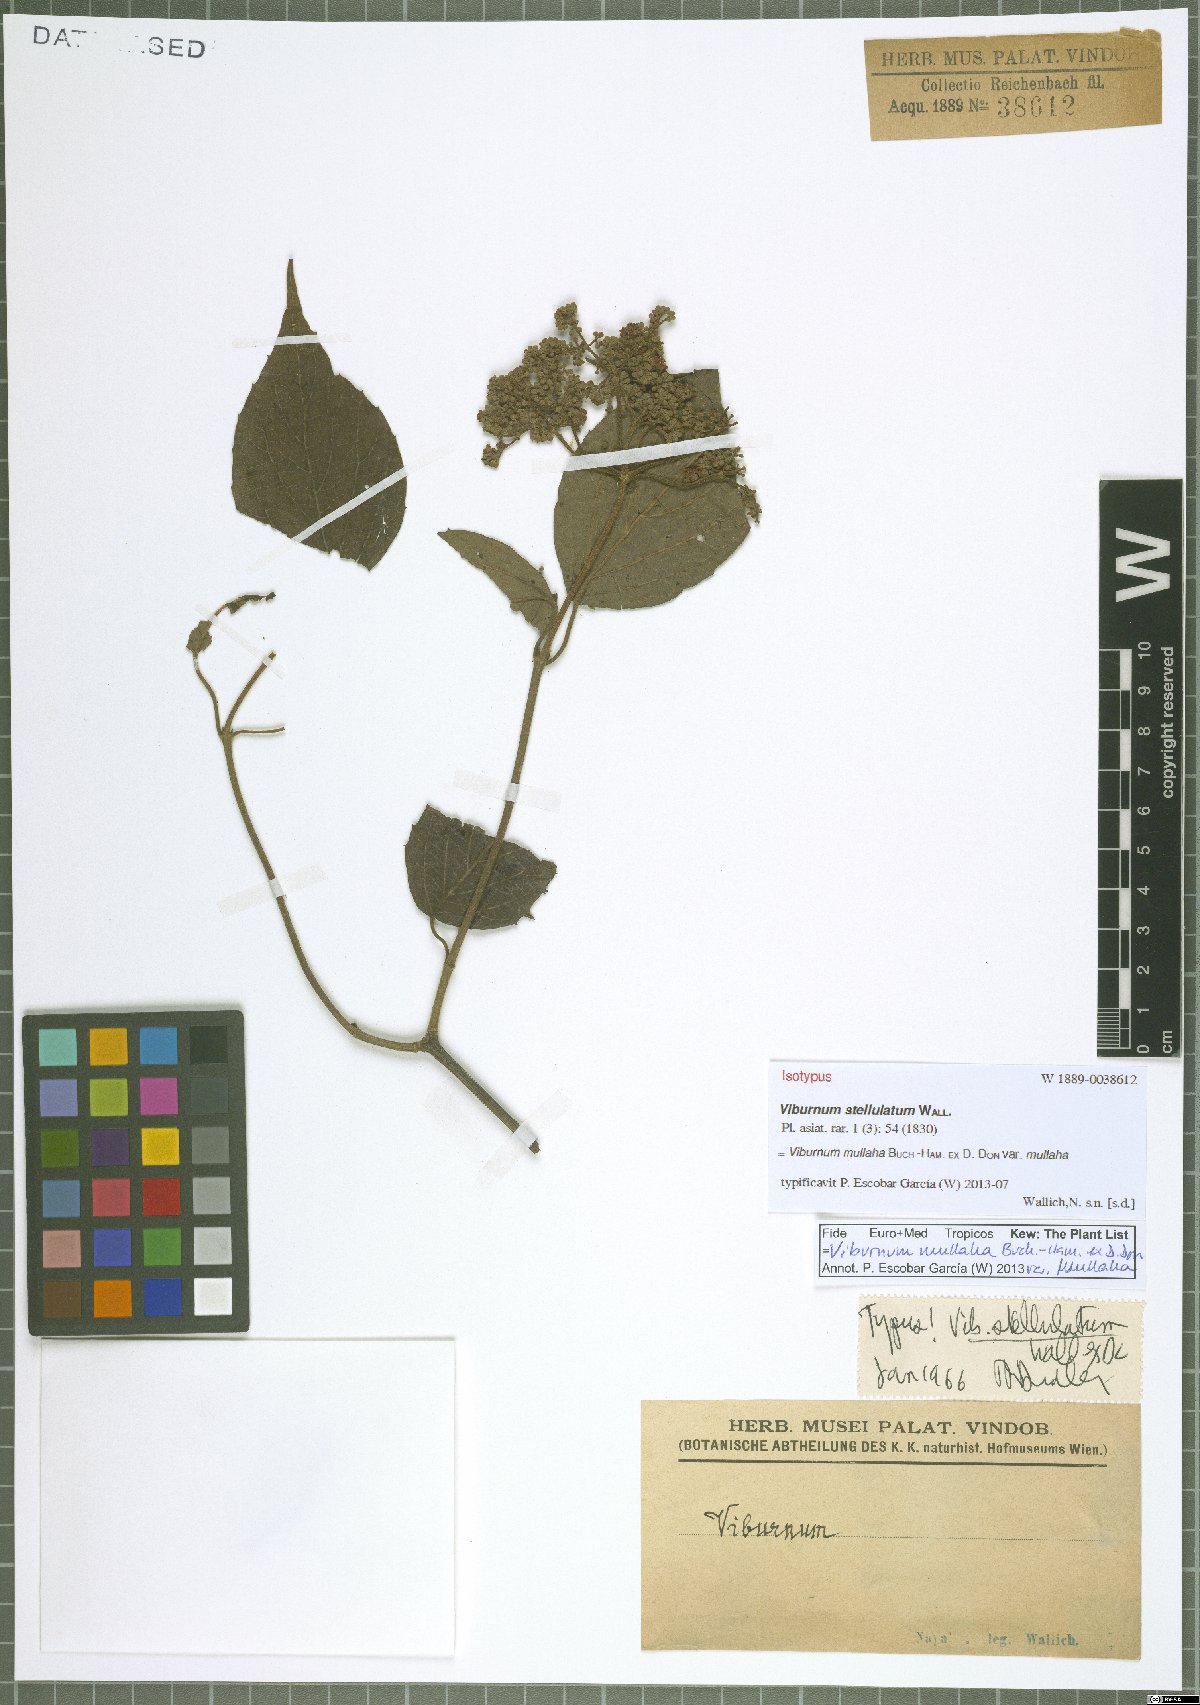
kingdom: Plantae
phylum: Tracheophyta
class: Magnoliopsida
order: Dipsacales
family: Viburnaceae
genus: Viburnum
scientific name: Viburnum mullaha
